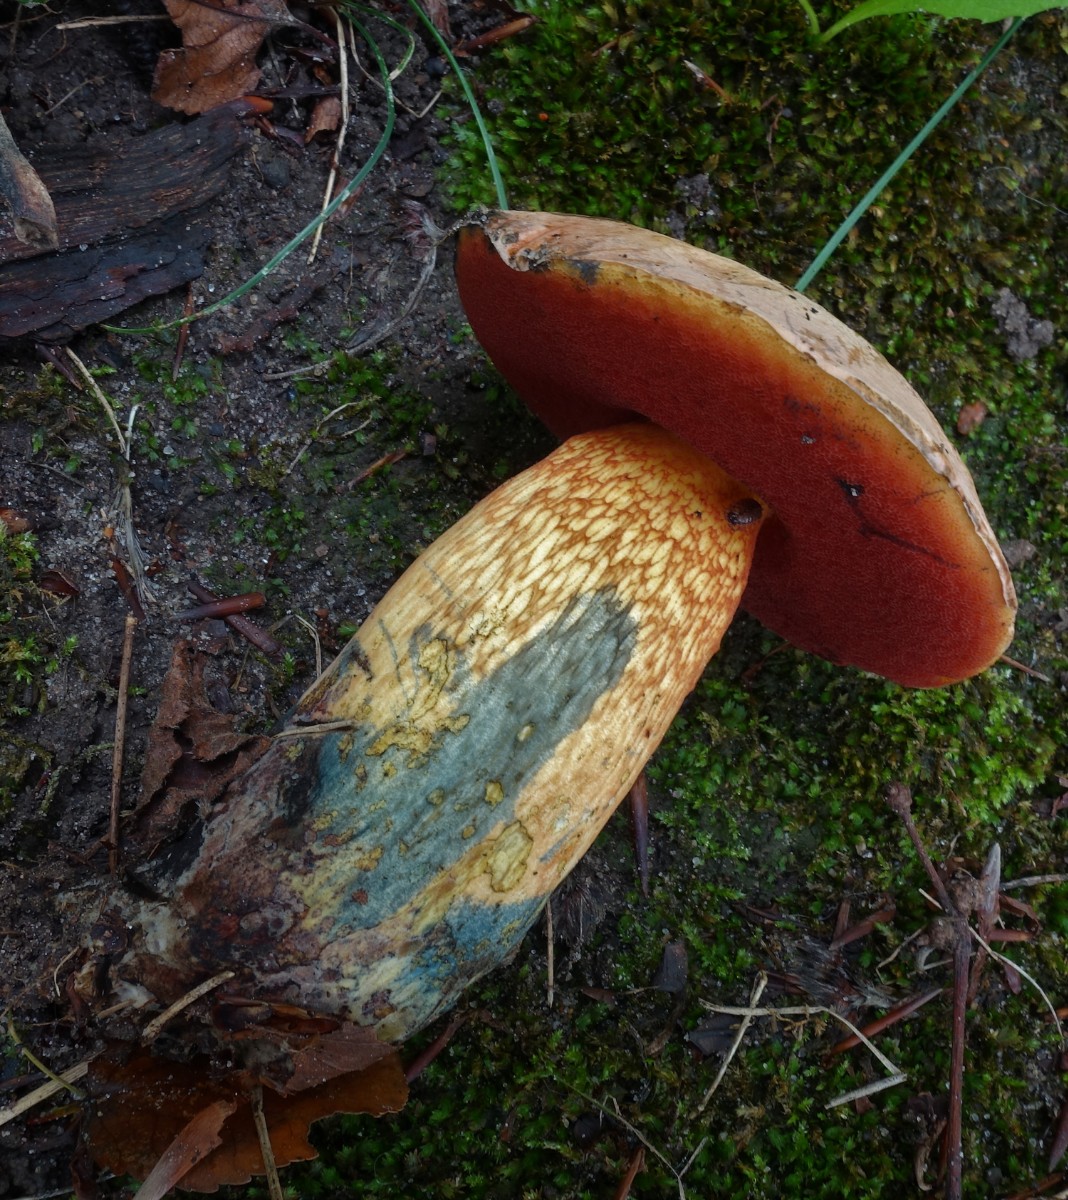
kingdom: Fungi
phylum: Basidiomycota
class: Agaricomycetes
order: Boletales
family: Boletaceae
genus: Suillellus
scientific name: Suillellus luridus
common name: netstokket indigorørhat
